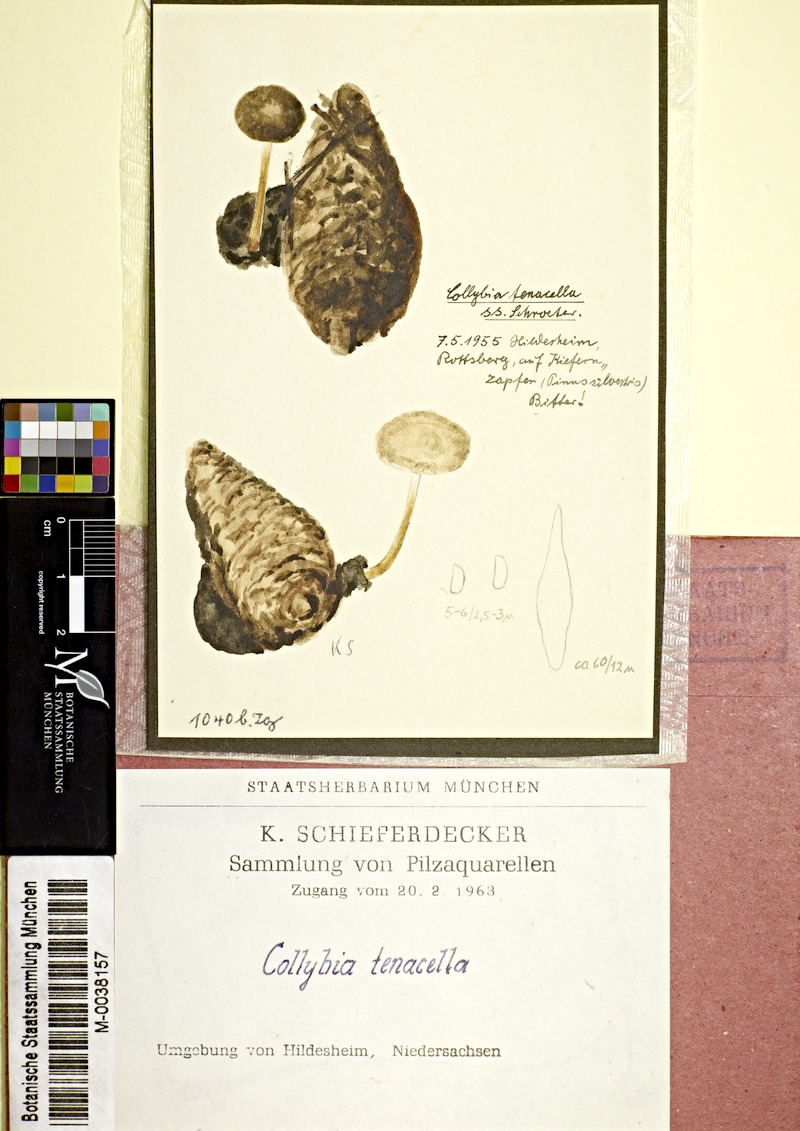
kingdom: Plantae
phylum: Tracheophyta
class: Pinopsida
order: Pinales
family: Pinaceae
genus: Pinus
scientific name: Pinus sylvestris
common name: Scots pine
